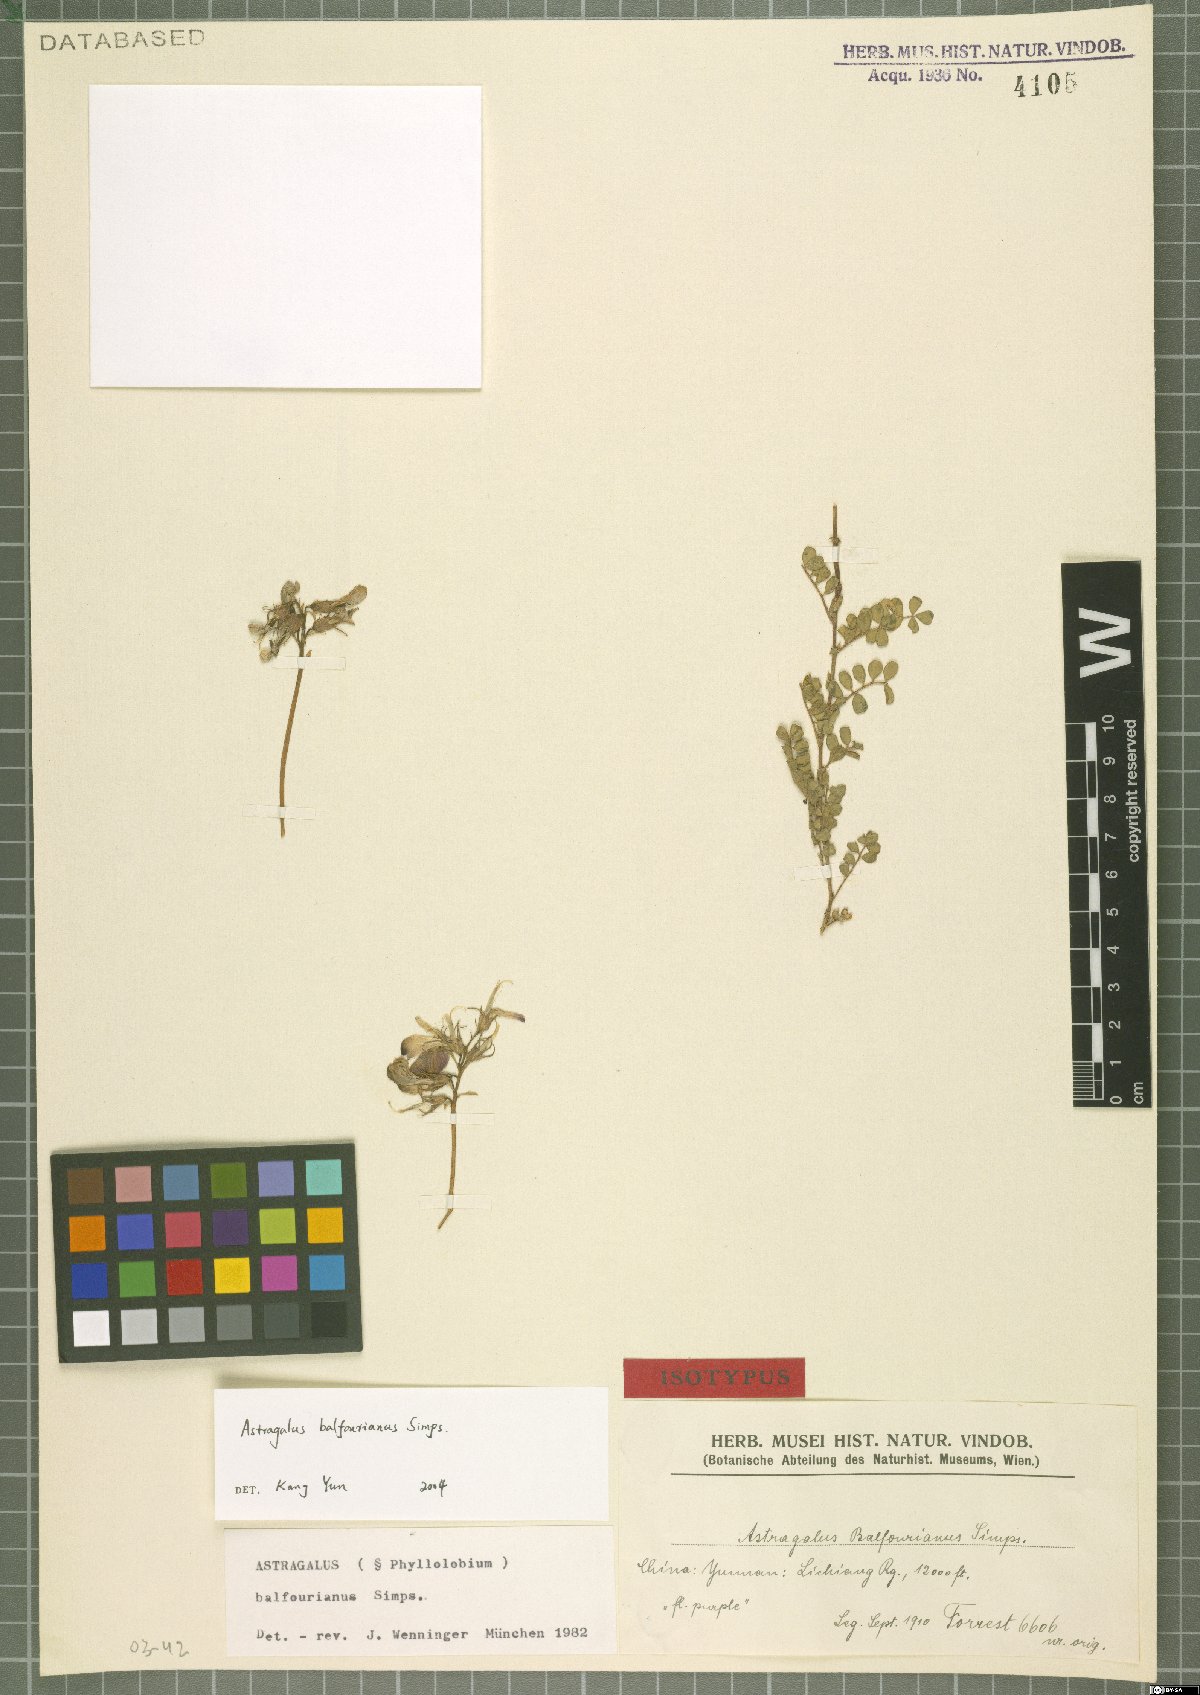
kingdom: Plantae
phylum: Tracheophyta
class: Magnoliopsida
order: Fabales
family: Fabaceae
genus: Phyllolobium
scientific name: Phyllolobium balfourianum
